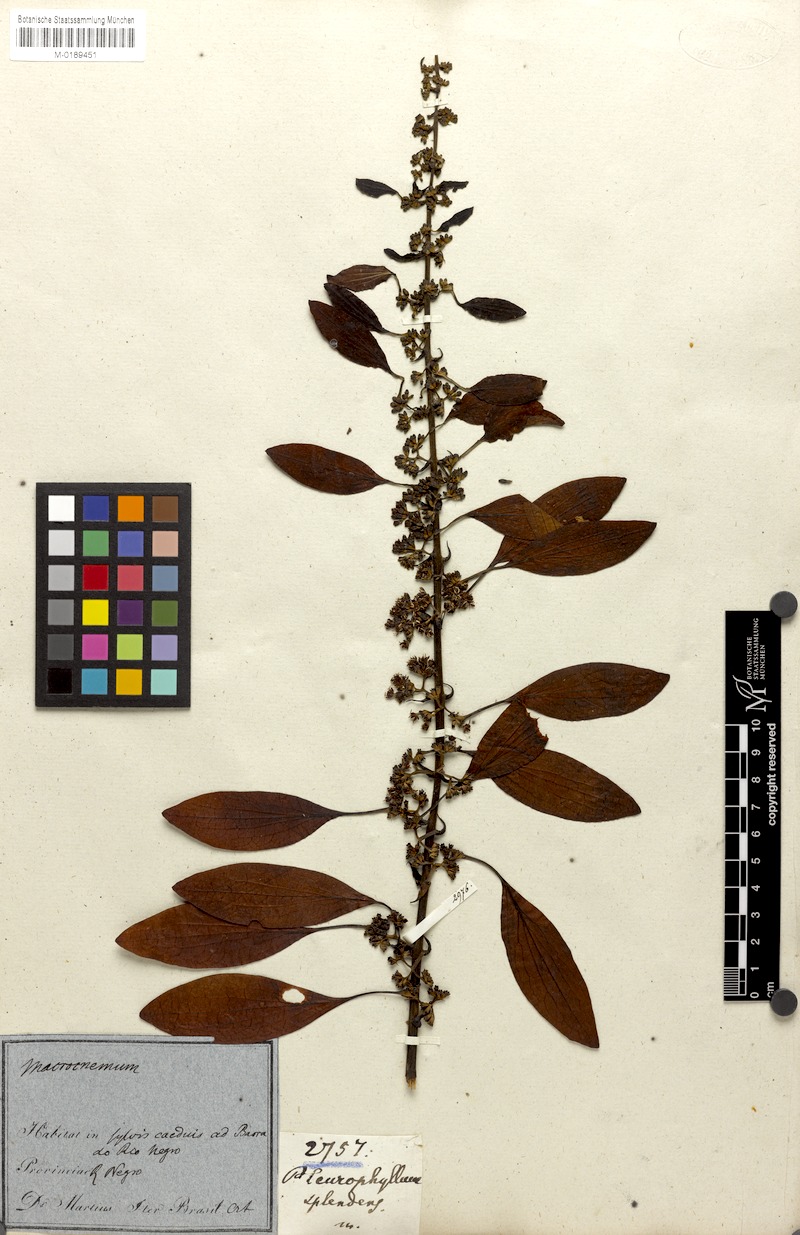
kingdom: Plantae
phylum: Tracheophyta
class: Magnoliopsida
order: Gentianales
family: Rubiaceae
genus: Warszewiczia
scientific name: Warszewiczia coccinea
